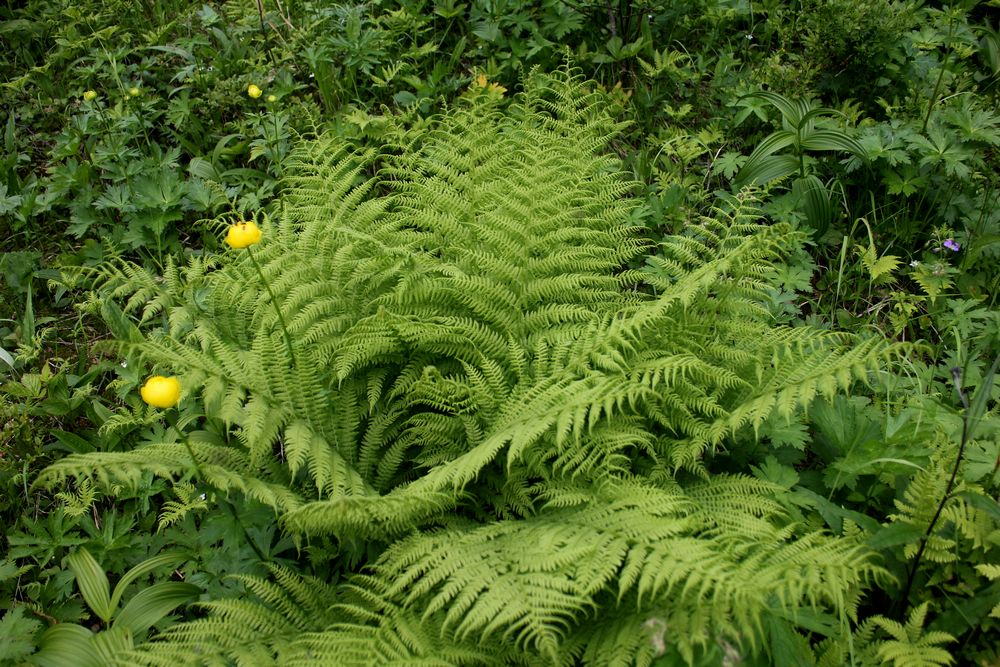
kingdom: Plantae
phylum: Tracheophyta
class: Polypodiopsida
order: Polypodiales
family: Athyriaceae
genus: Athyrium
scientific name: Athyrium filix-femina
